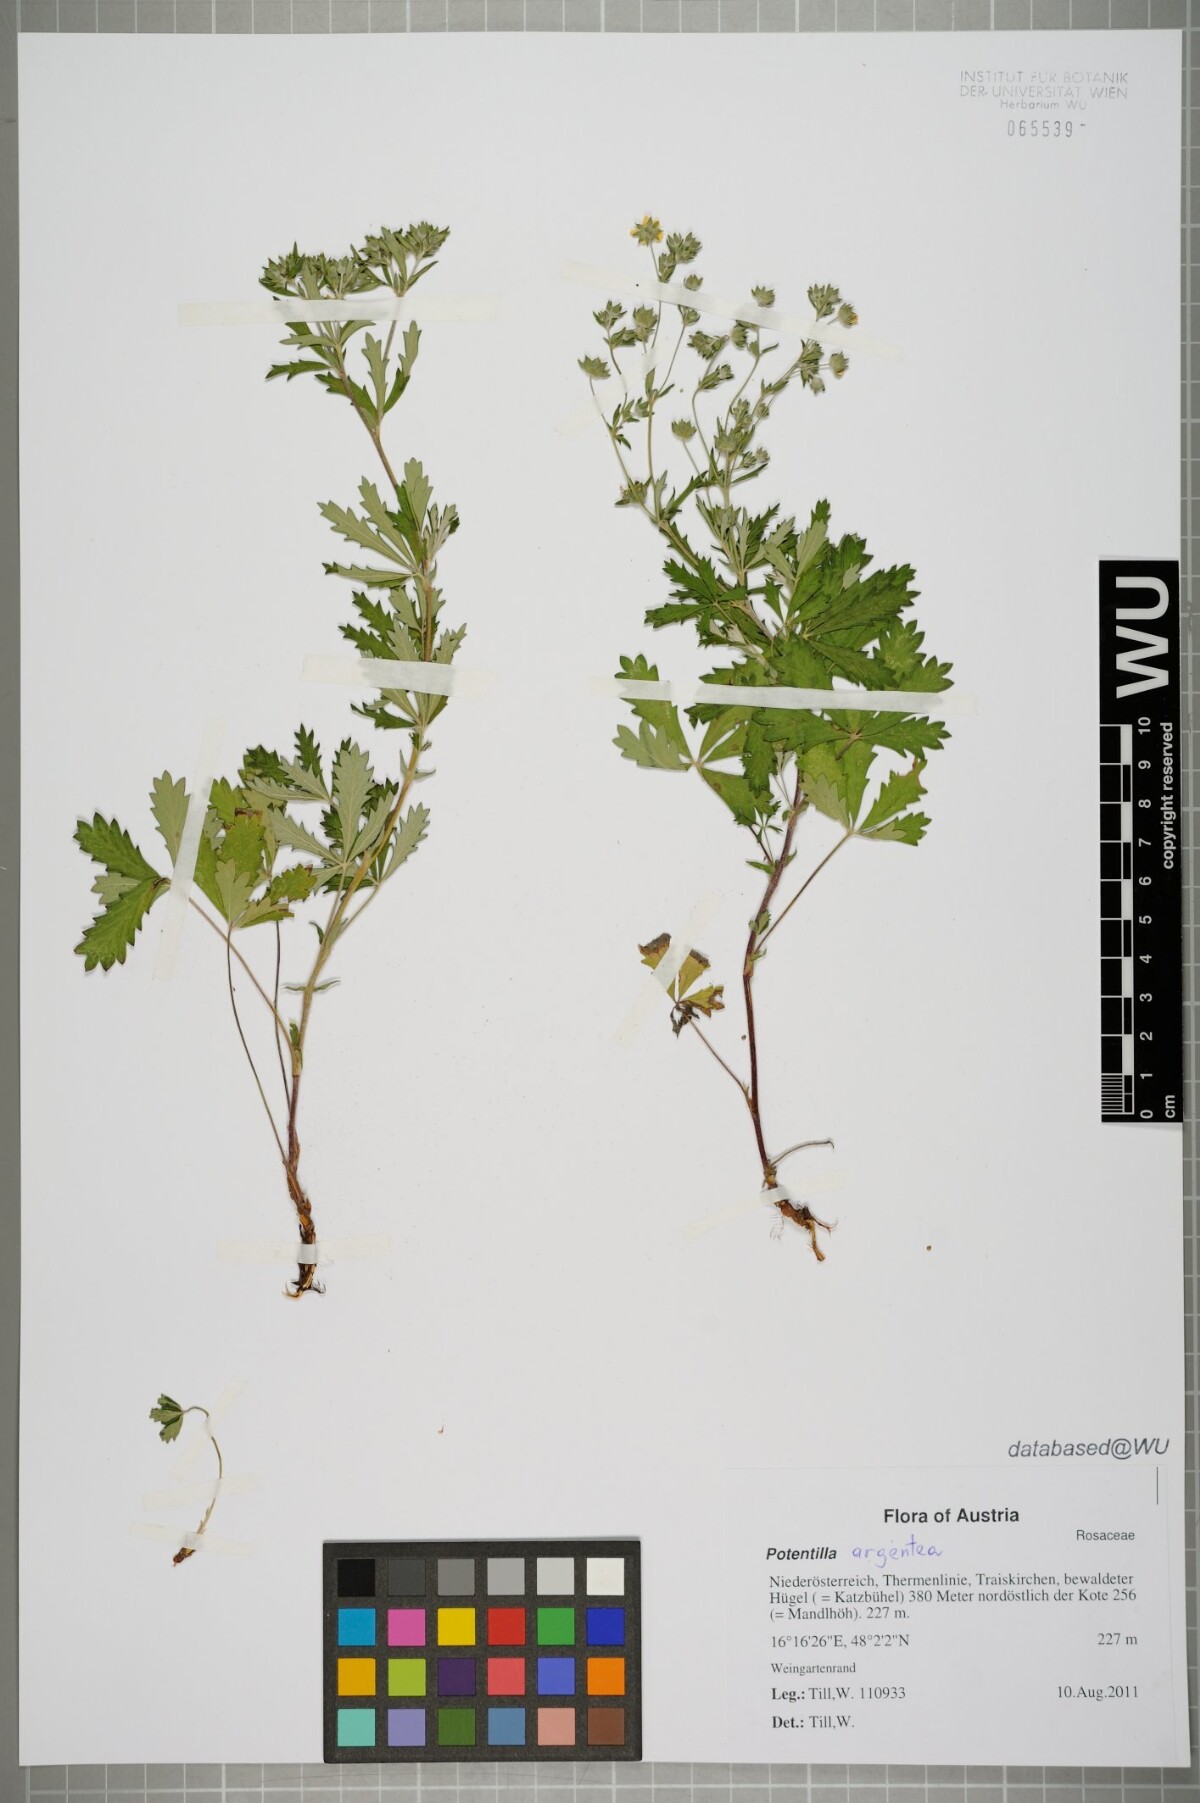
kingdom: Plantae
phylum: Tracheophyta
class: Magnoliopsida
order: Rosales
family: Rosaceae
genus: Potentilla
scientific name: Potentilla argentea
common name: Hoary cinquefoil
